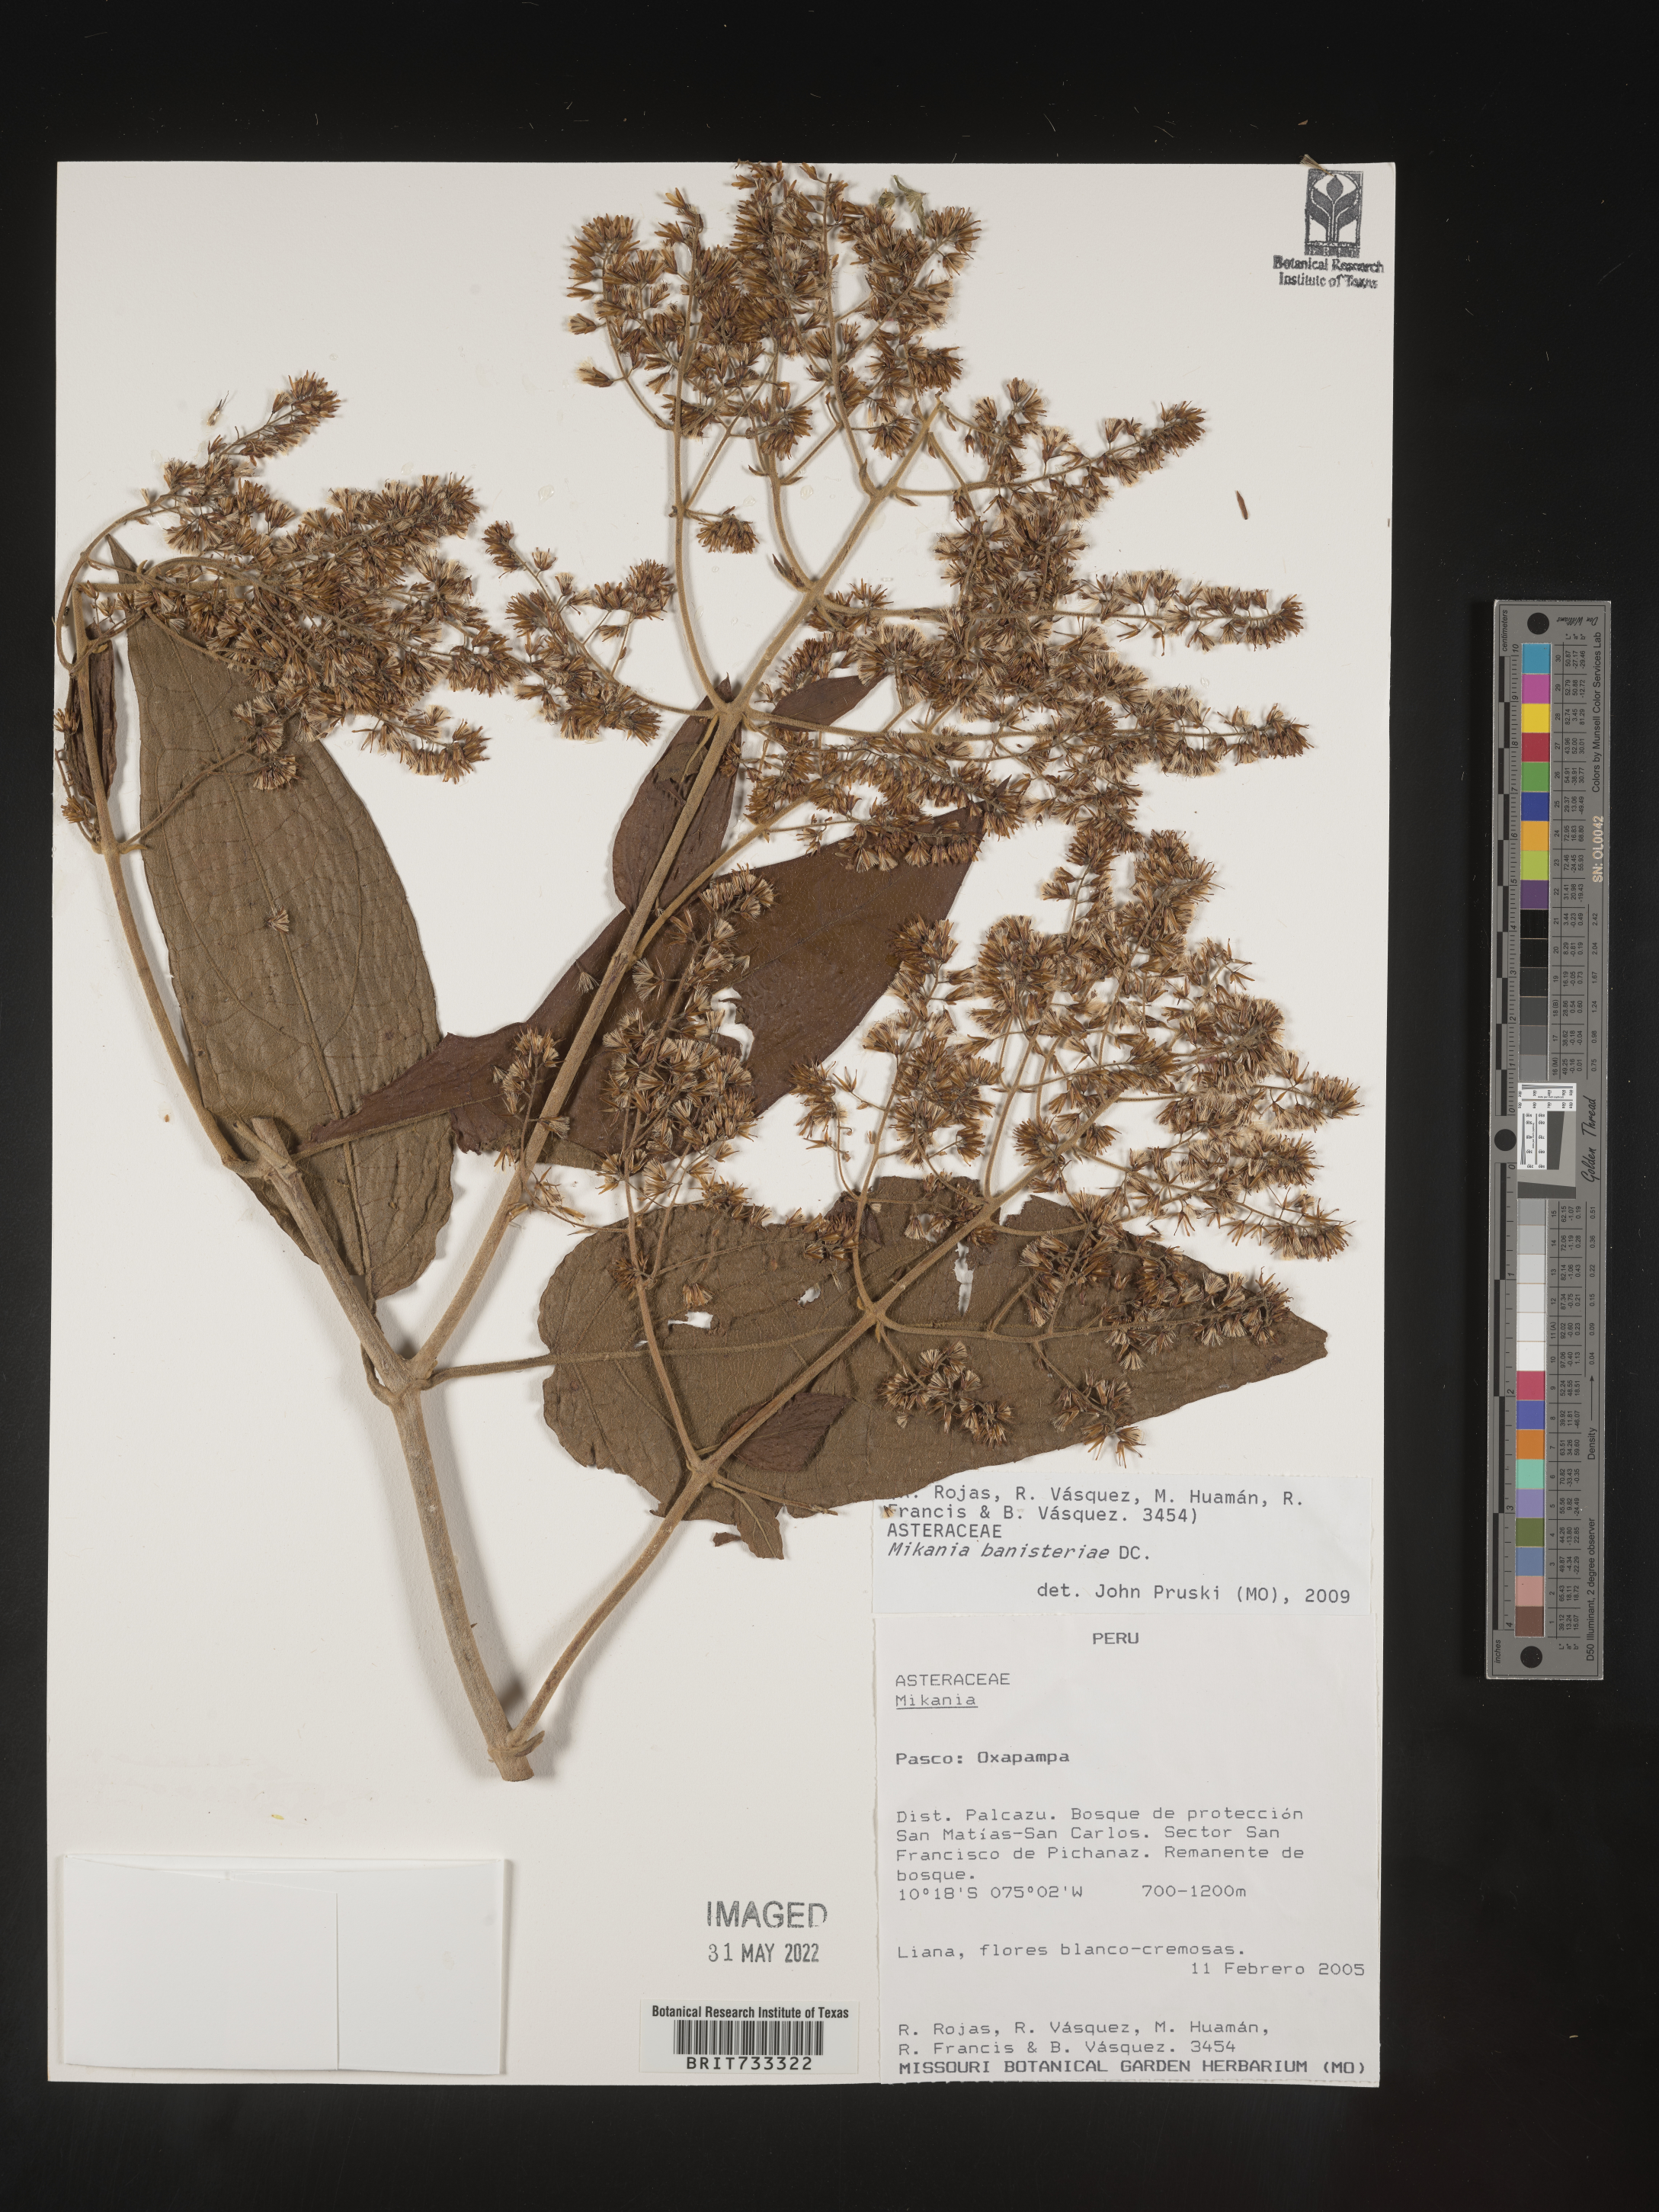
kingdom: Plantae
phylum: Tracheophyta
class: Magnoliopsida
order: Asterales
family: Asteraceae
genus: Mikania
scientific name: Mikania
